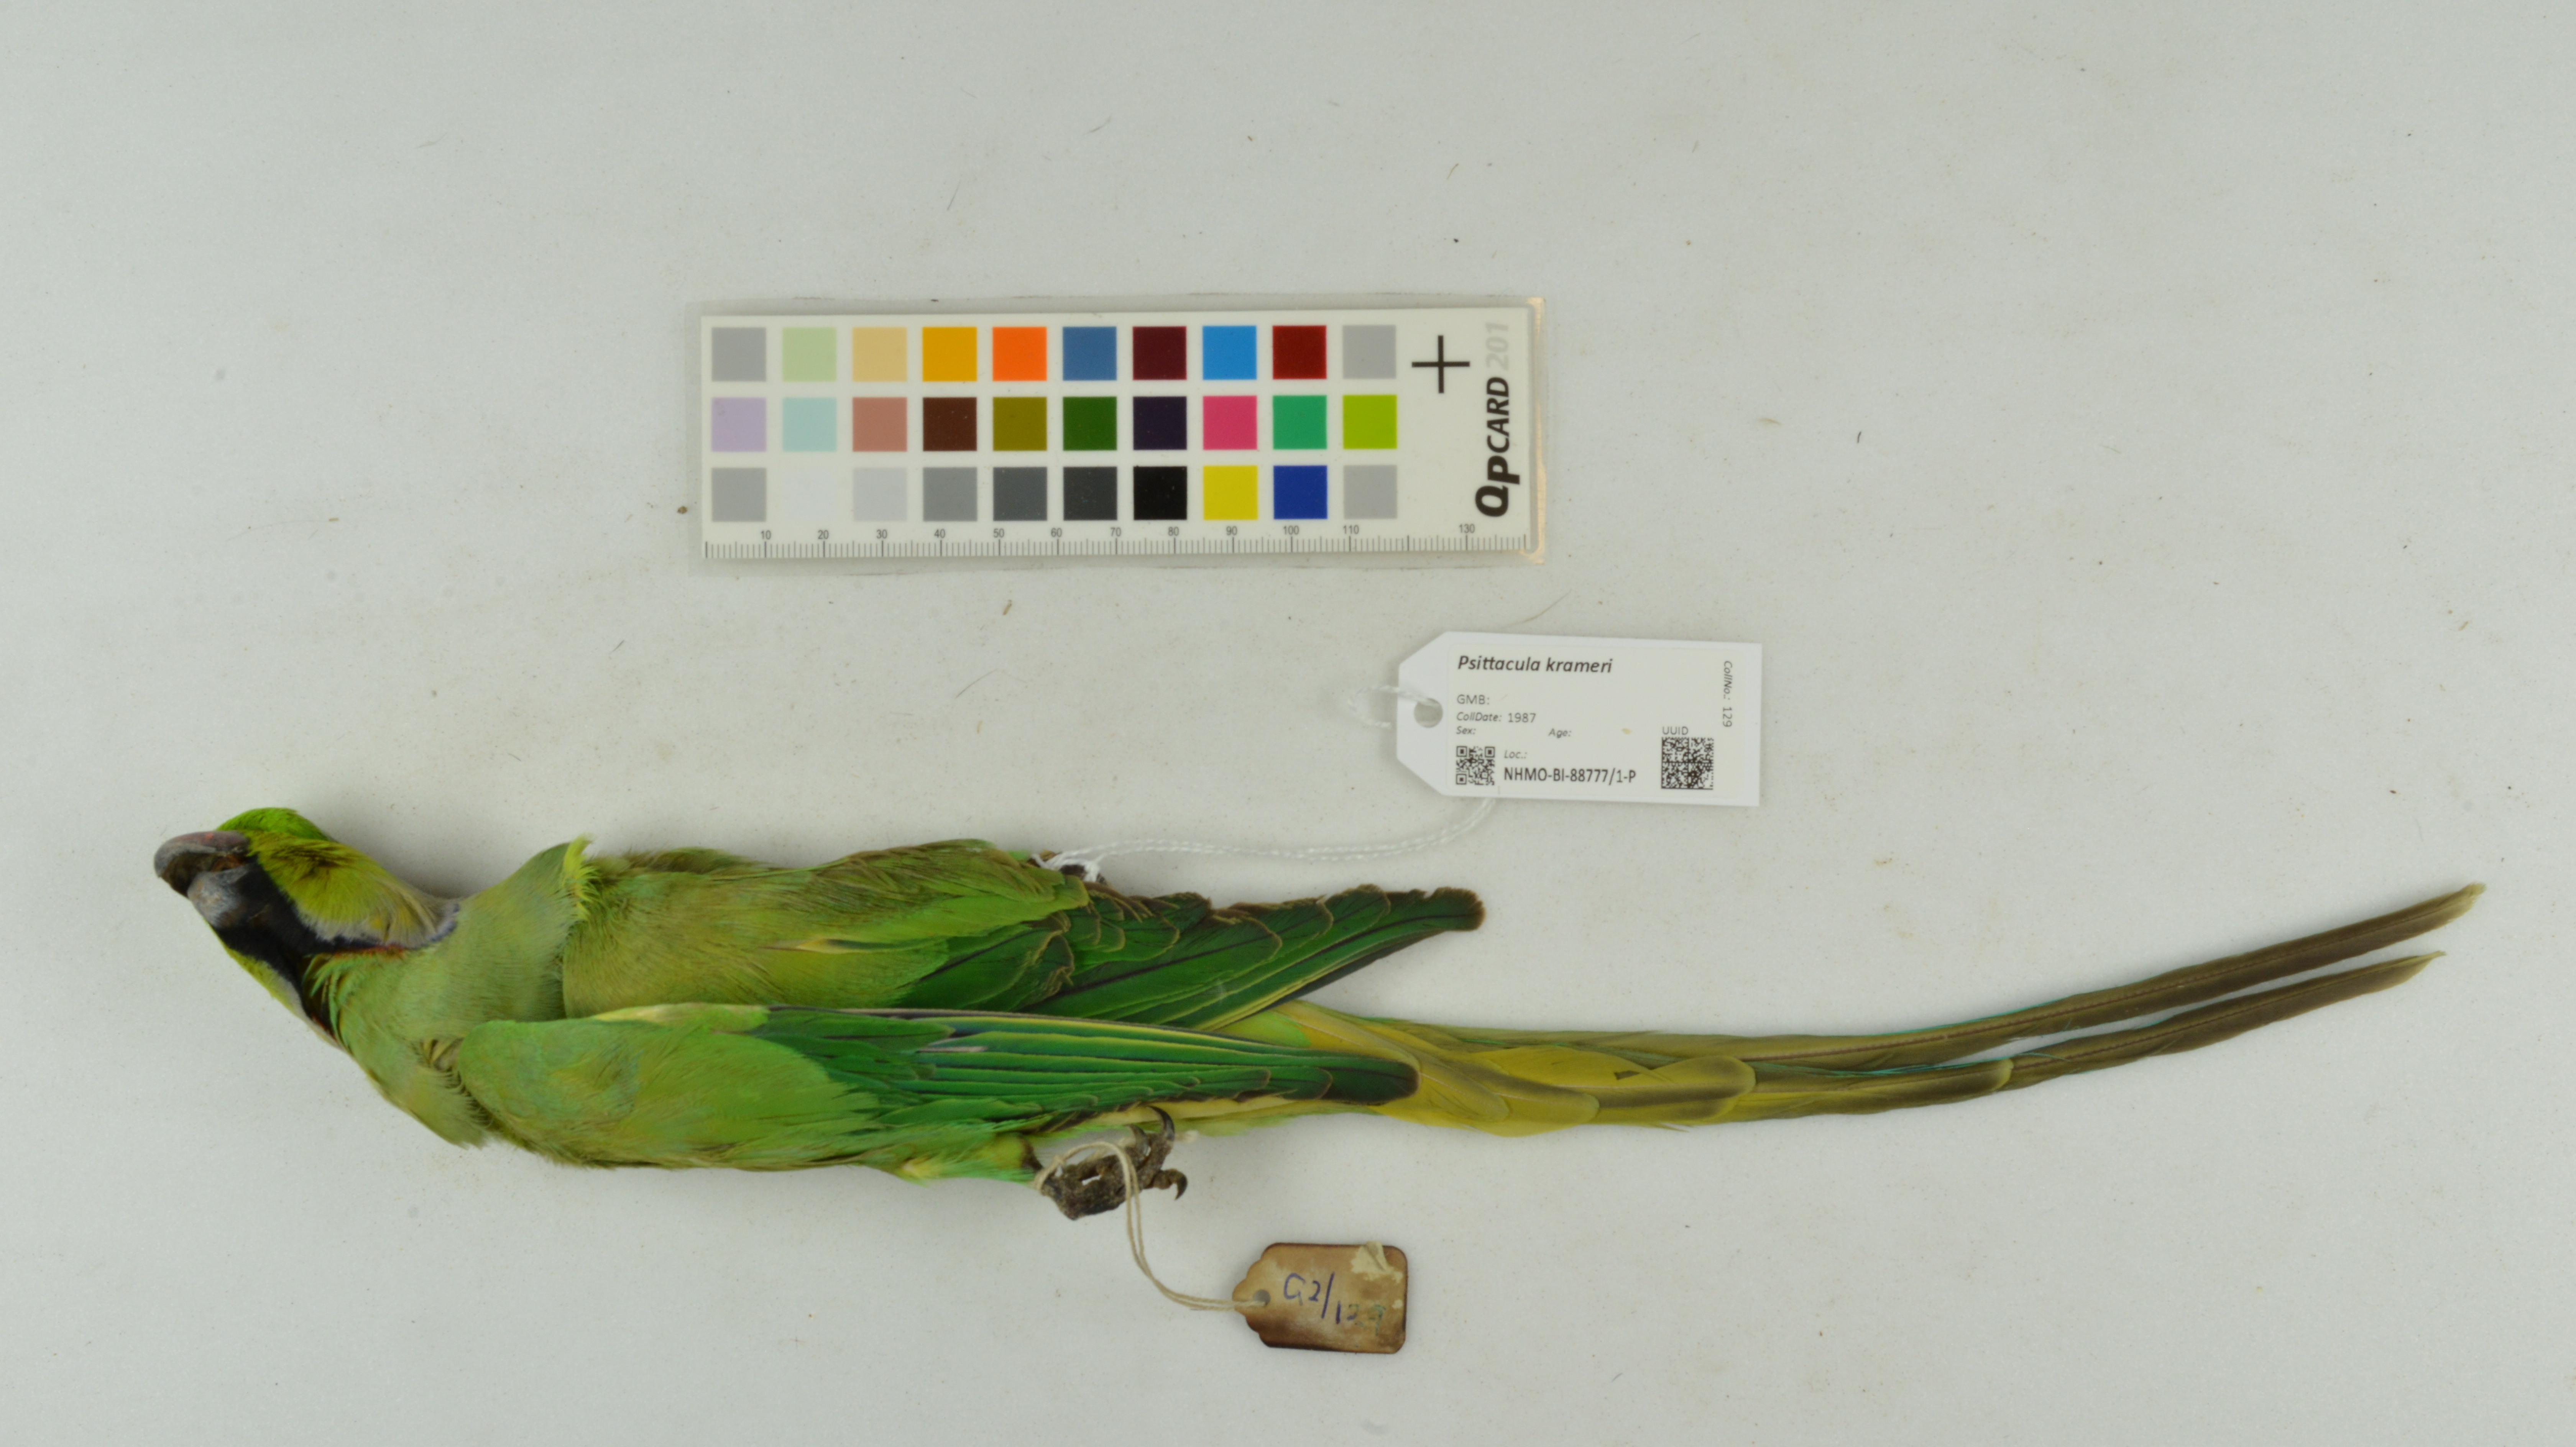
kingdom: Animalia
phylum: Chordata
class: Aves
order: Psittaciformes
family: Psittacidae
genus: Psittacula
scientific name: Psittacula krameri
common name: Rose-ringed parakeet
